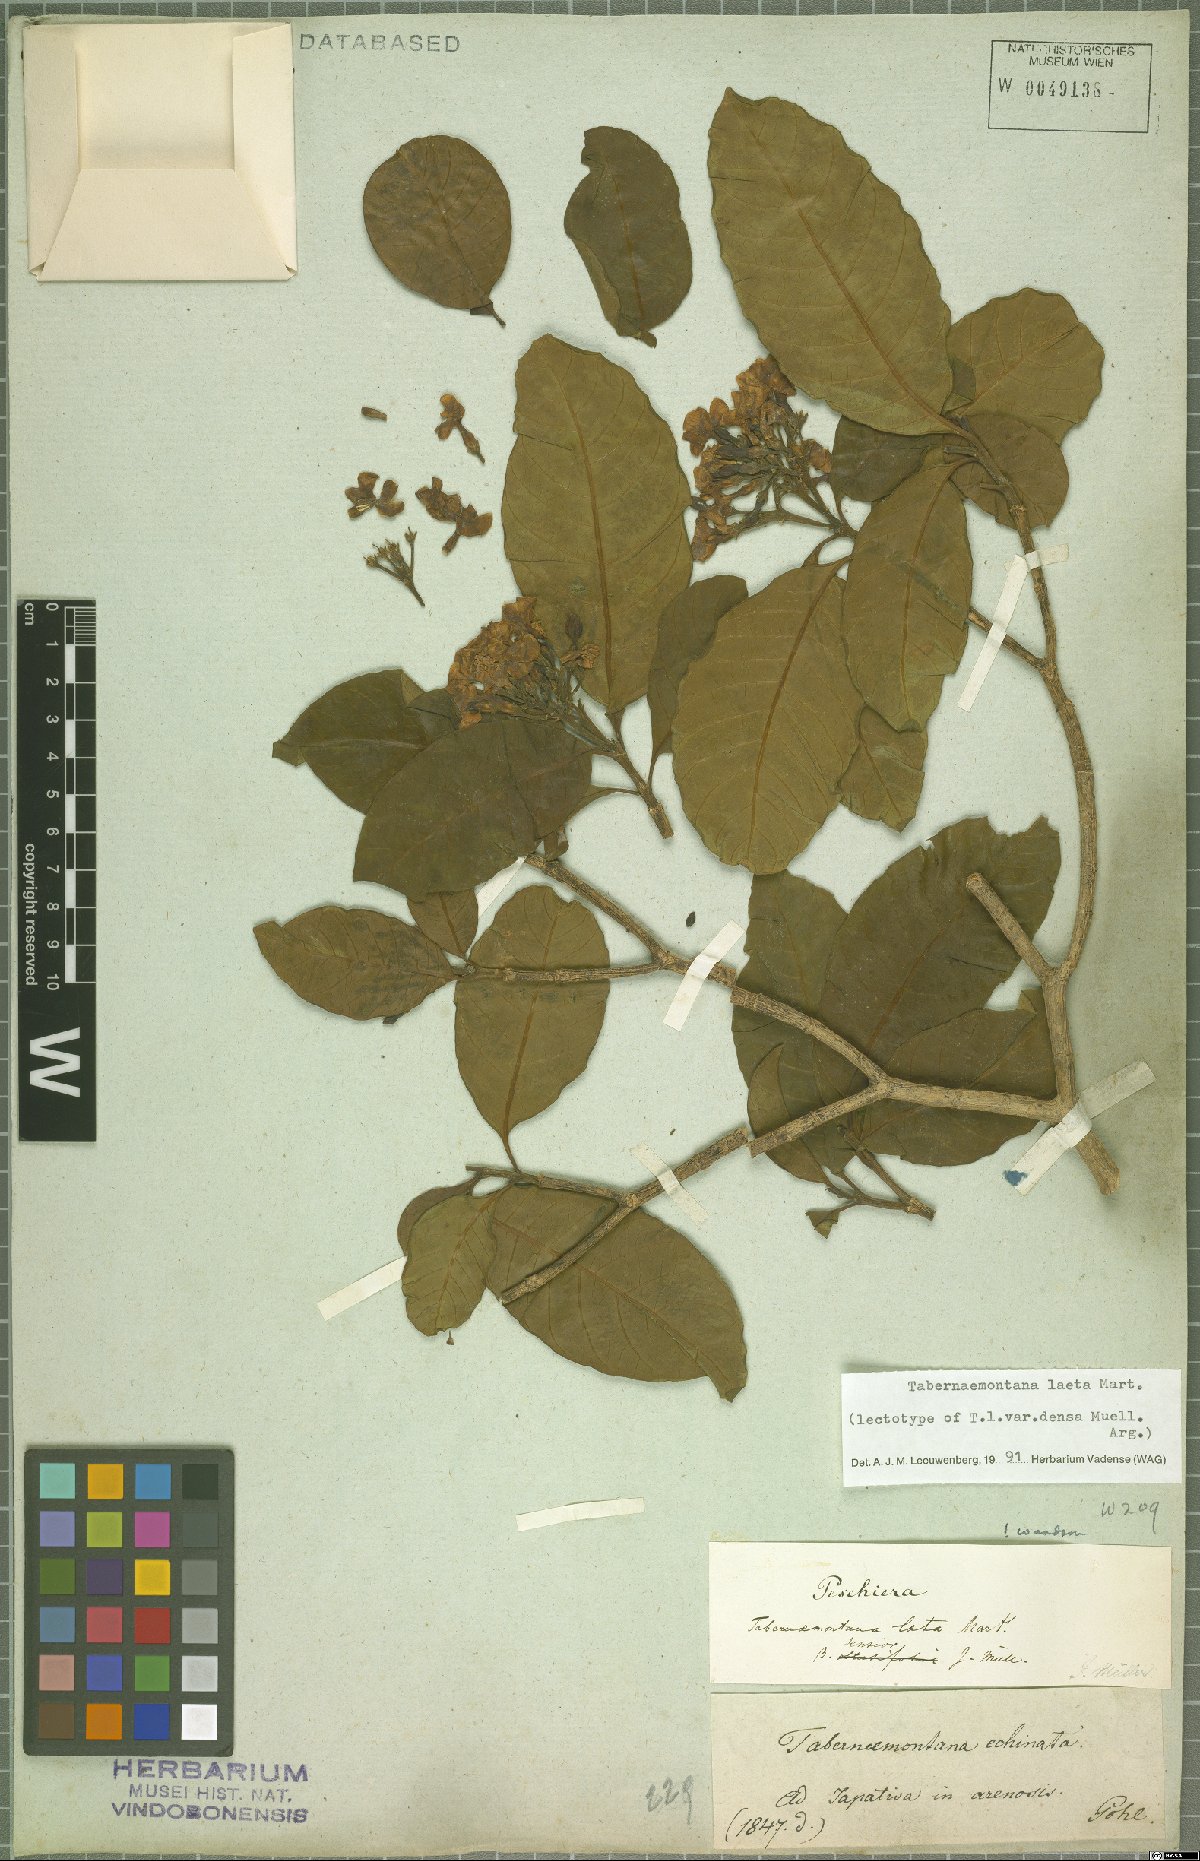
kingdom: Plantae
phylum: Tracheophyta
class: Magnoliopsida
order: Gentianales
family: Apocynaceae
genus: Tabernaemontana
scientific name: Tabernaemontana laeta
